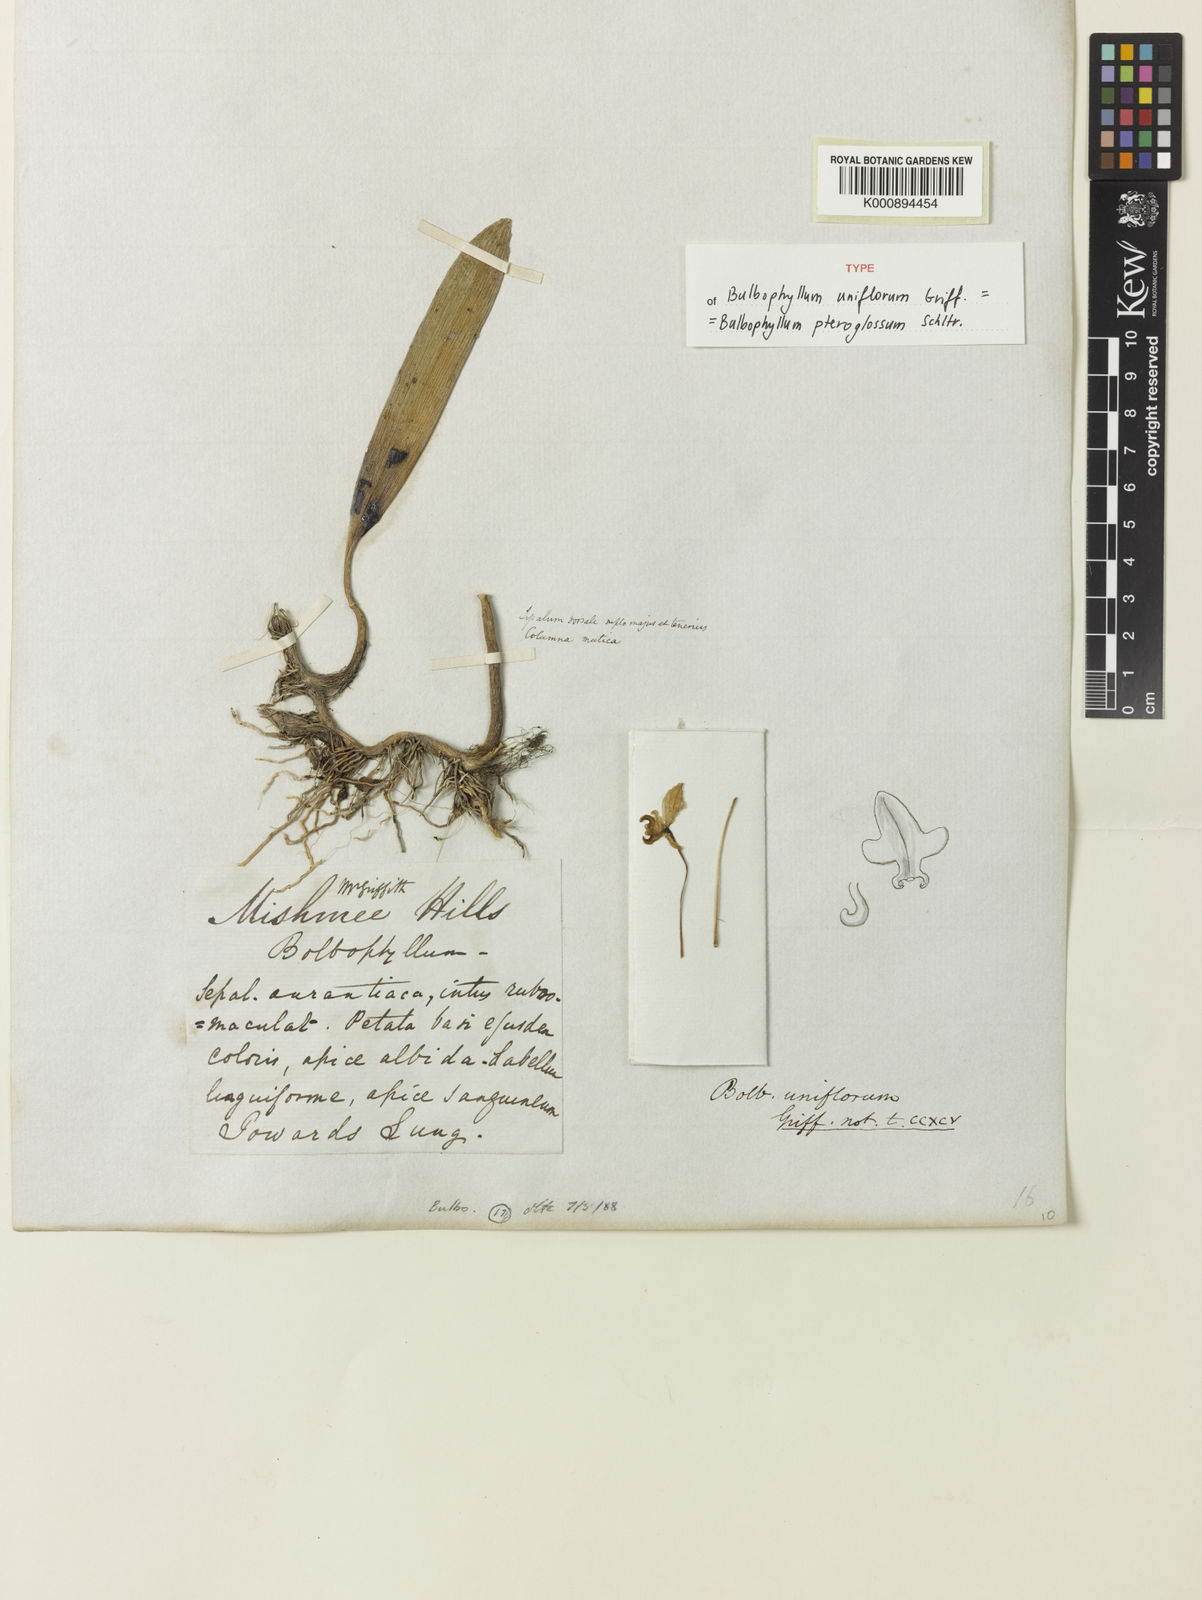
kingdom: Plantae
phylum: Tracheophyta
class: Liliopsida
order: Asparagales
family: Orchidaceae
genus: Bulbophyllum
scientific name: Bulbophyllum pteroglossum
